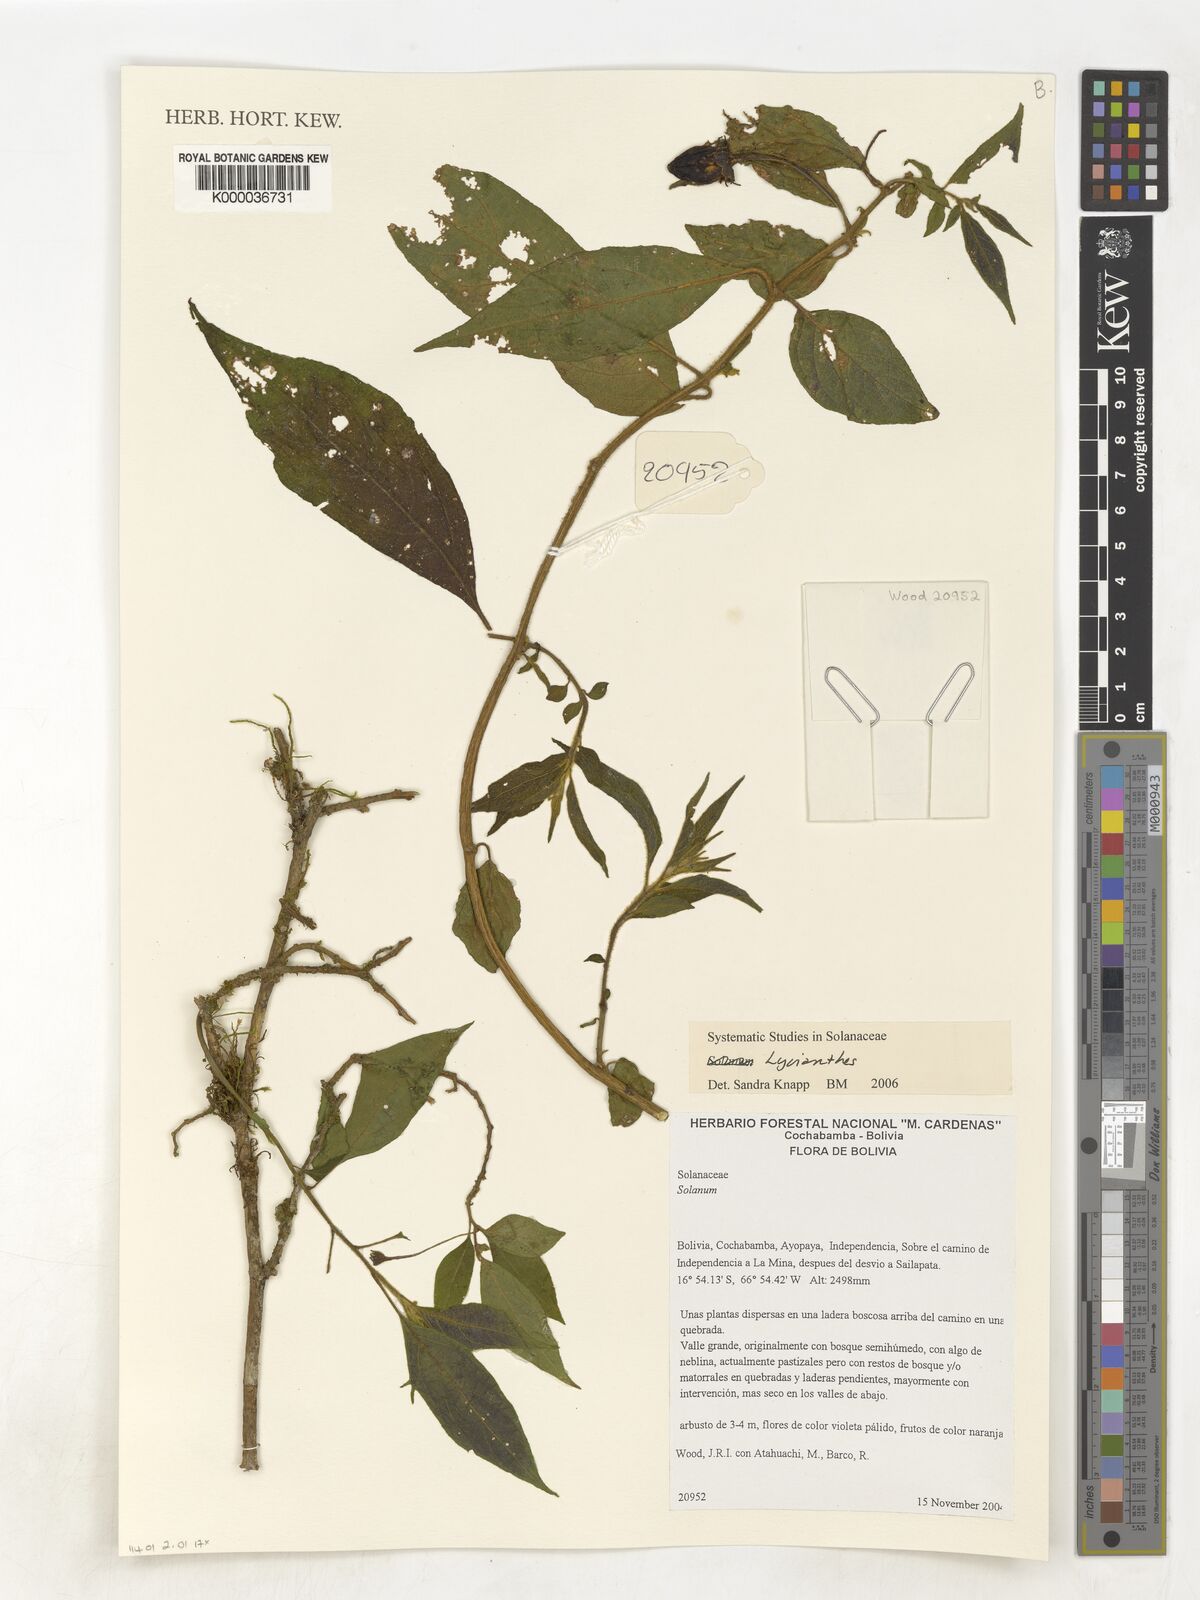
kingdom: Plantae
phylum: Tracheophyta
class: Magnoliopsida
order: Solanales
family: Solanaceae
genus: Lycianthes
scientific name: Lycianthes
